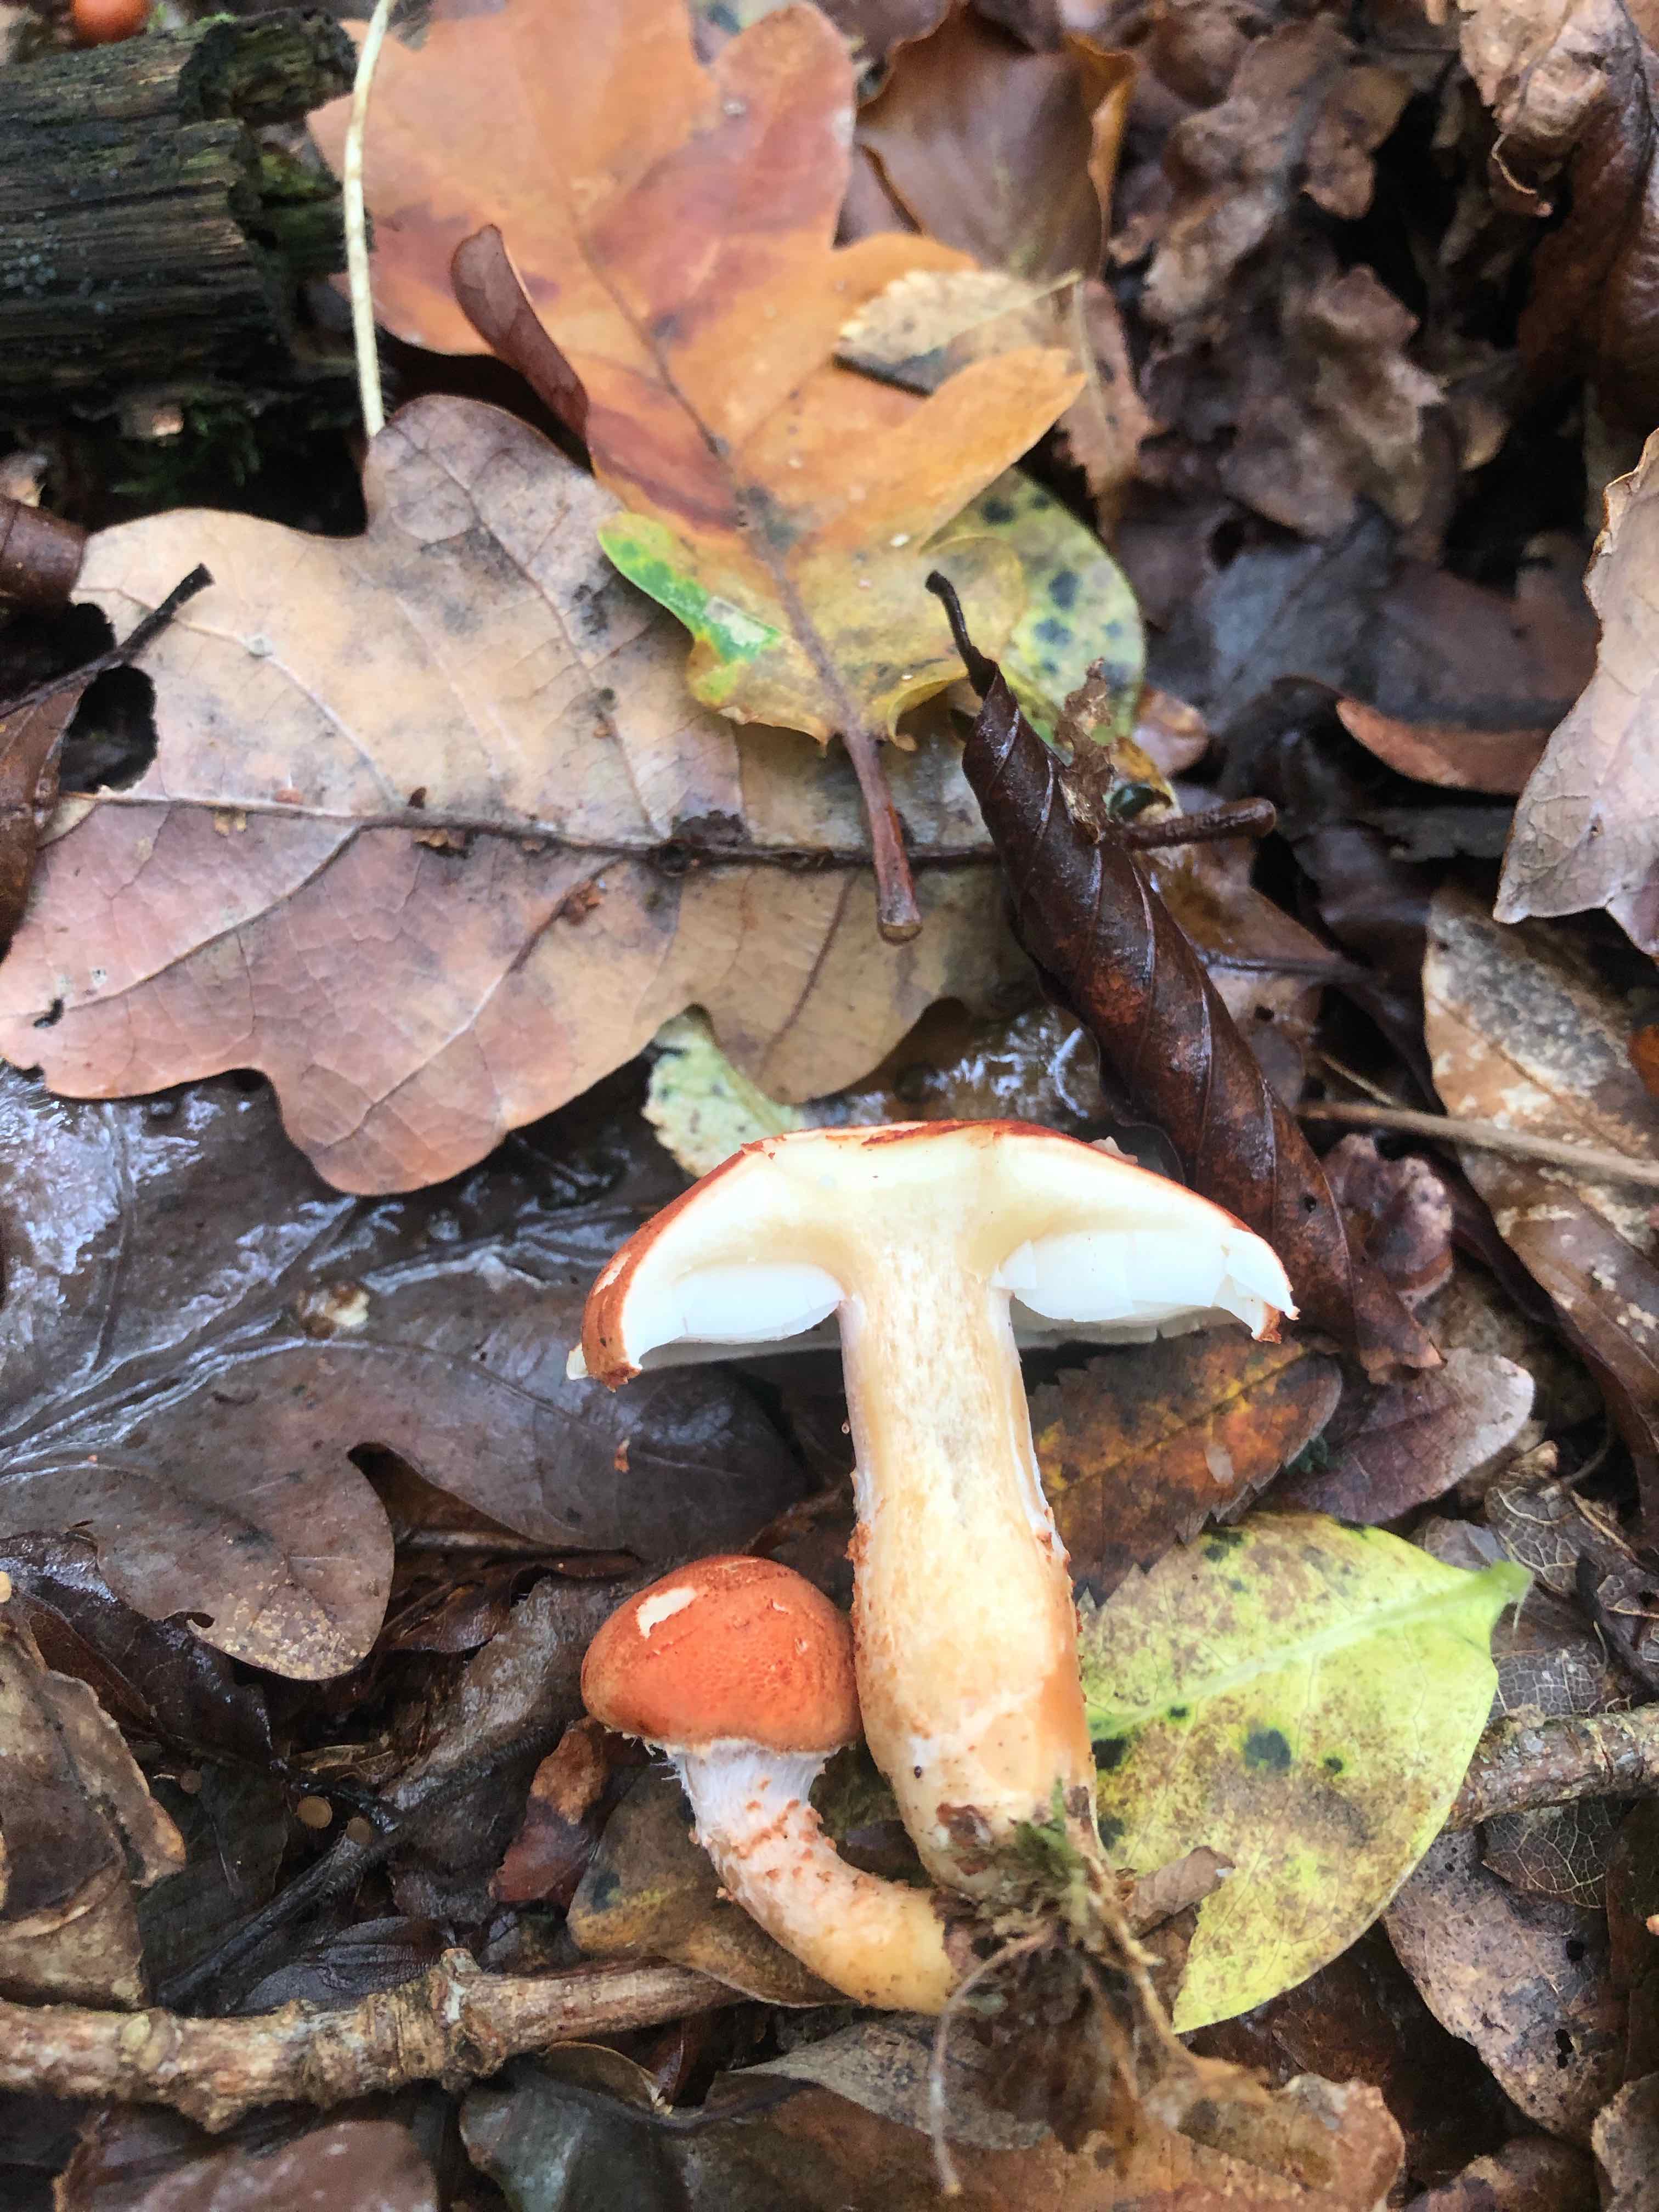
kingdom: Fungi
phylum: Basidiomycota
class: Agaricomycetes
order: Agaricales
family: Agaricaceae
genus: Cystodermella
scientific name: Cystodermella
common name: grynhat
